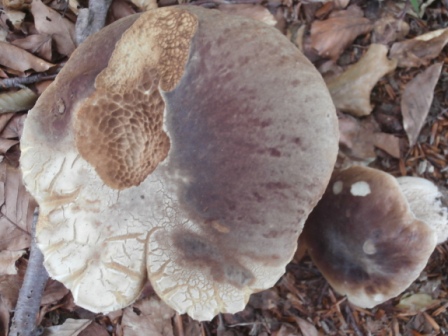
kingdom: Fungi
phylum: Basidiomycota
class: Agaricomycetes
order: Boletales
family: Boletaceae
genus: Boletus
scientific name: Boletus reticulatus
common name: sommer-rørhat
